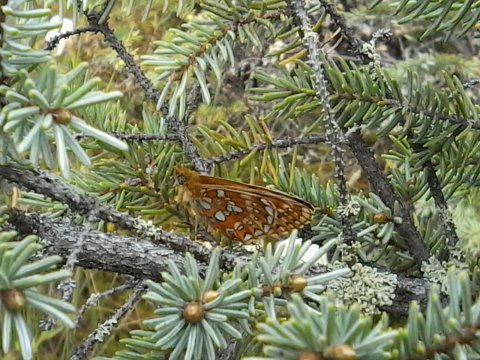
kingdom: Animalia
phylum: Arthropoda
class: Insecta
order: Lepidoptera
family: Nymphalidae
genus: Boloria
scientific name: Boloria eunomia
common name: Bog Fritillary
